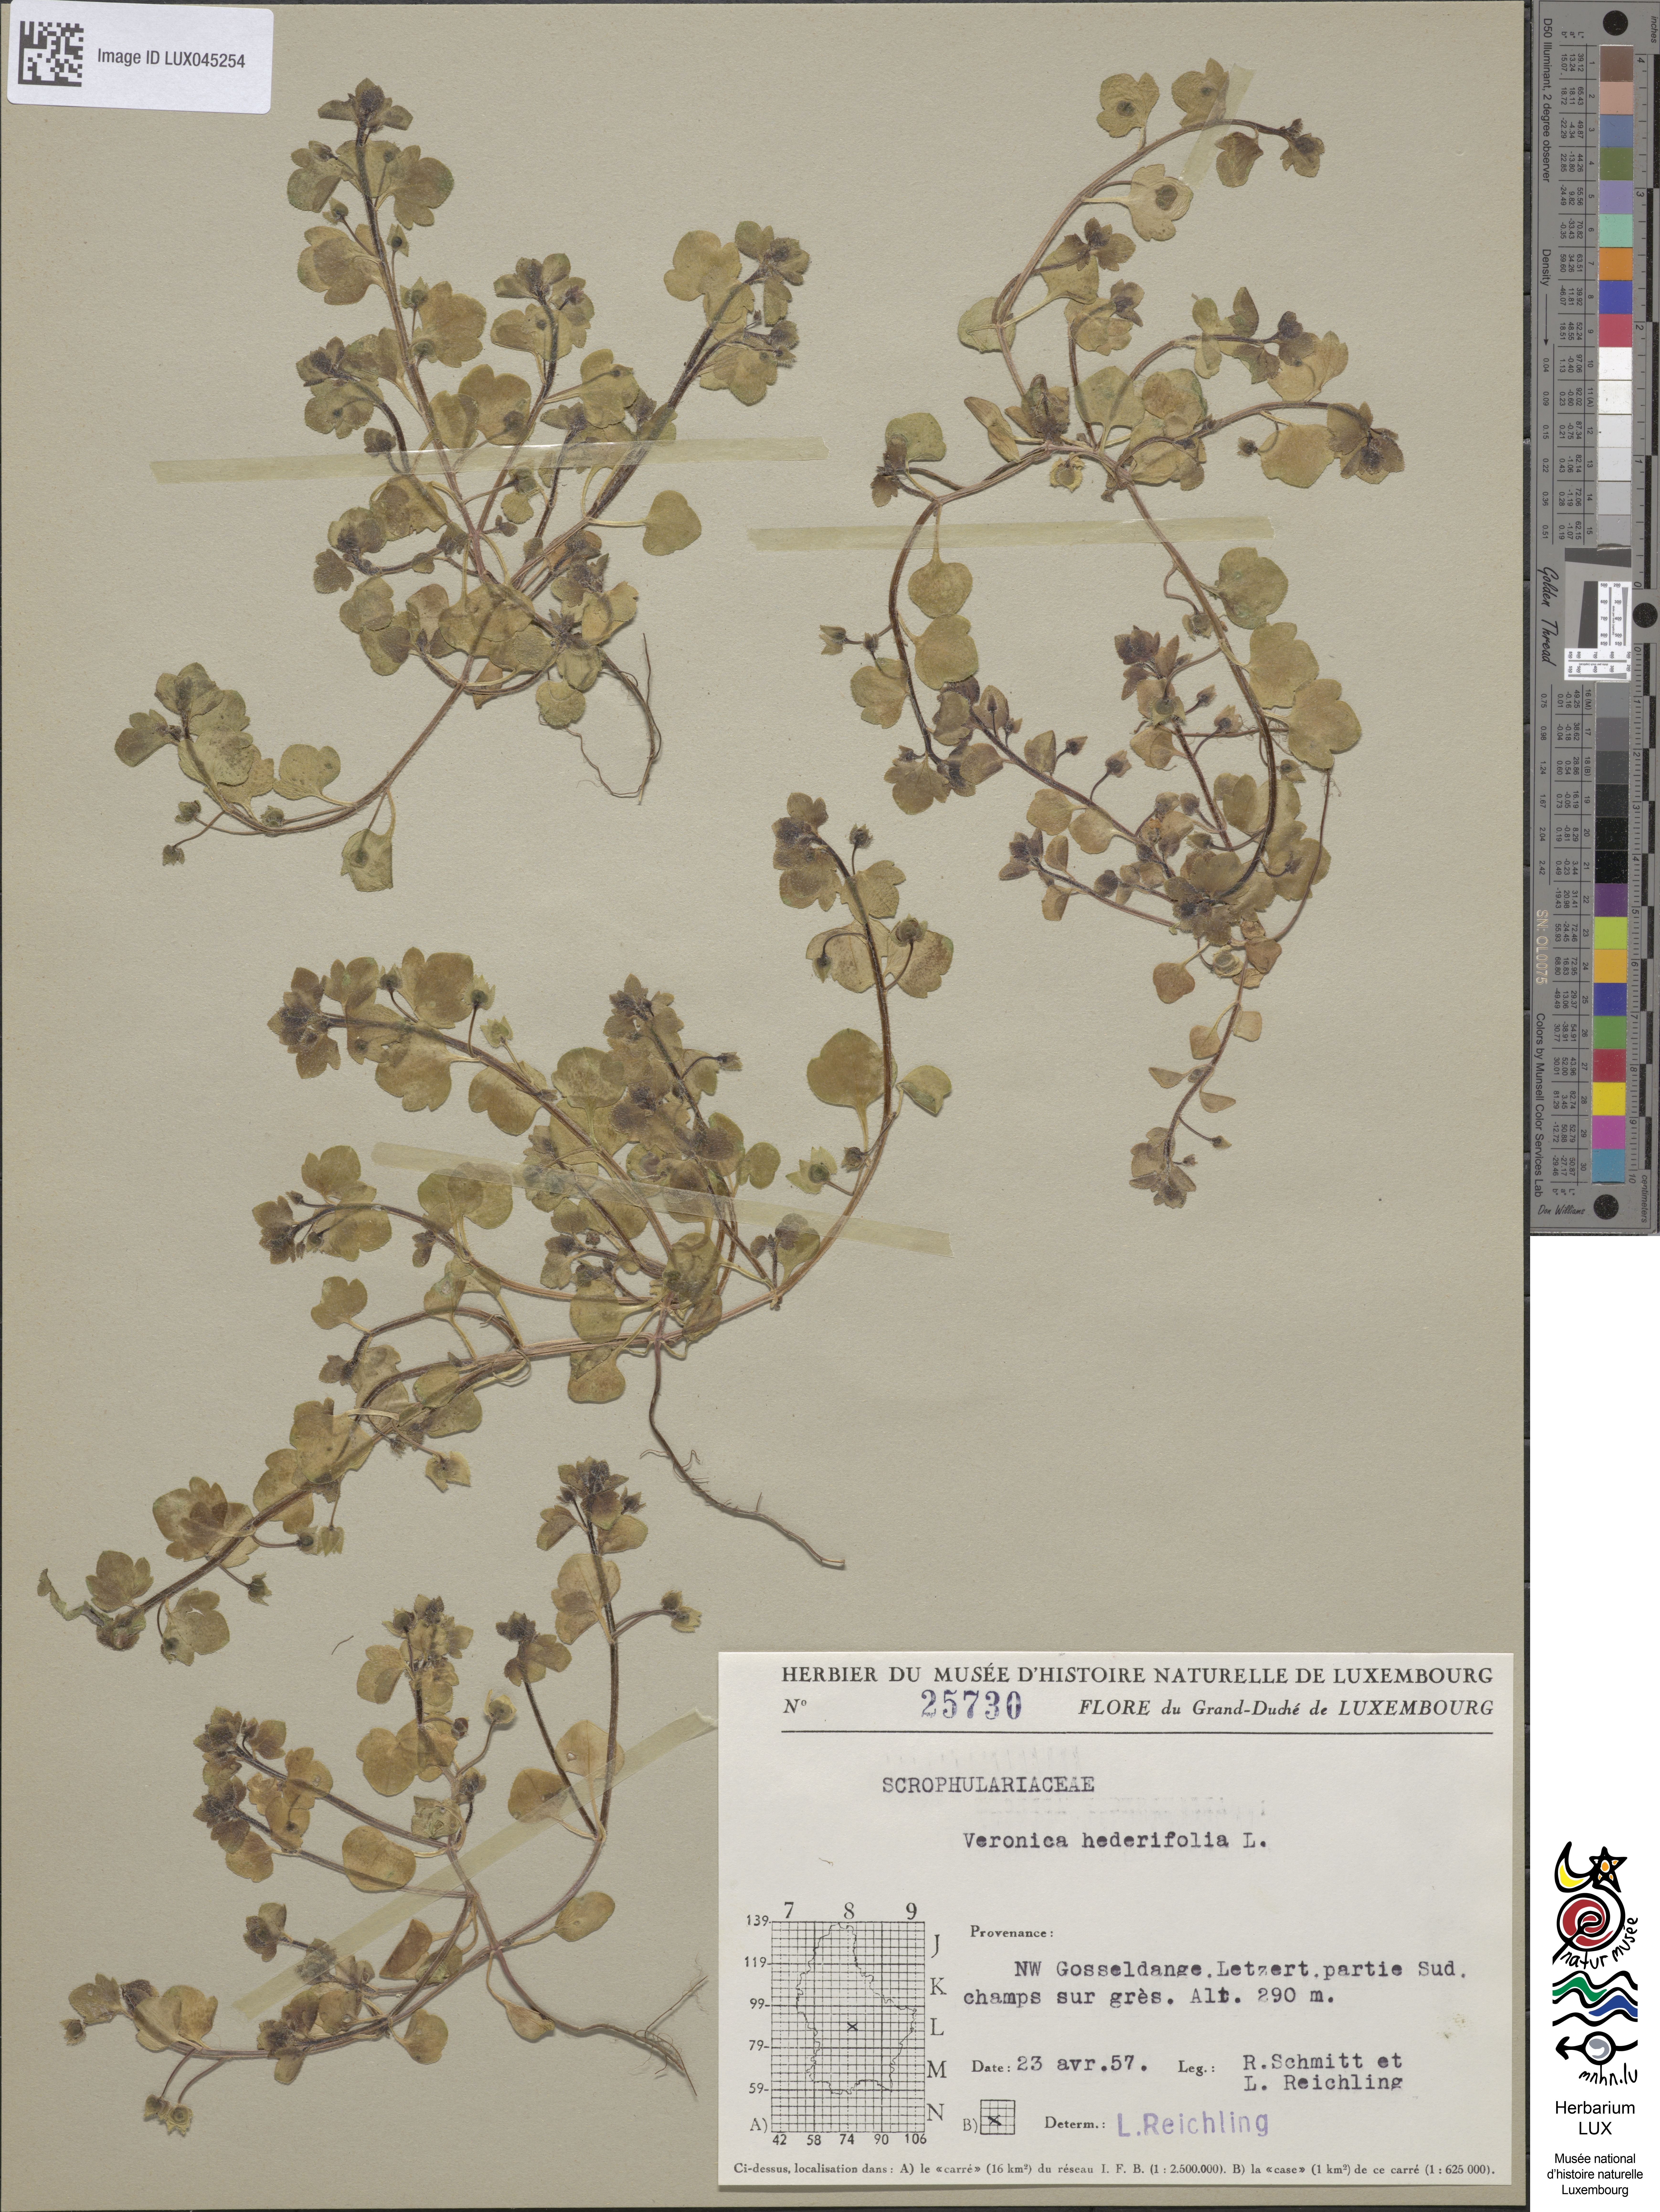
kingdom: Plantae
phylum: Tracheophyta
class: Magnoliopsida
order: Lamiales
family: Plantaginaceae
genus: Veronica
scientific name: Veronica hederifolia
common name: Ivy-leaved speedwell
